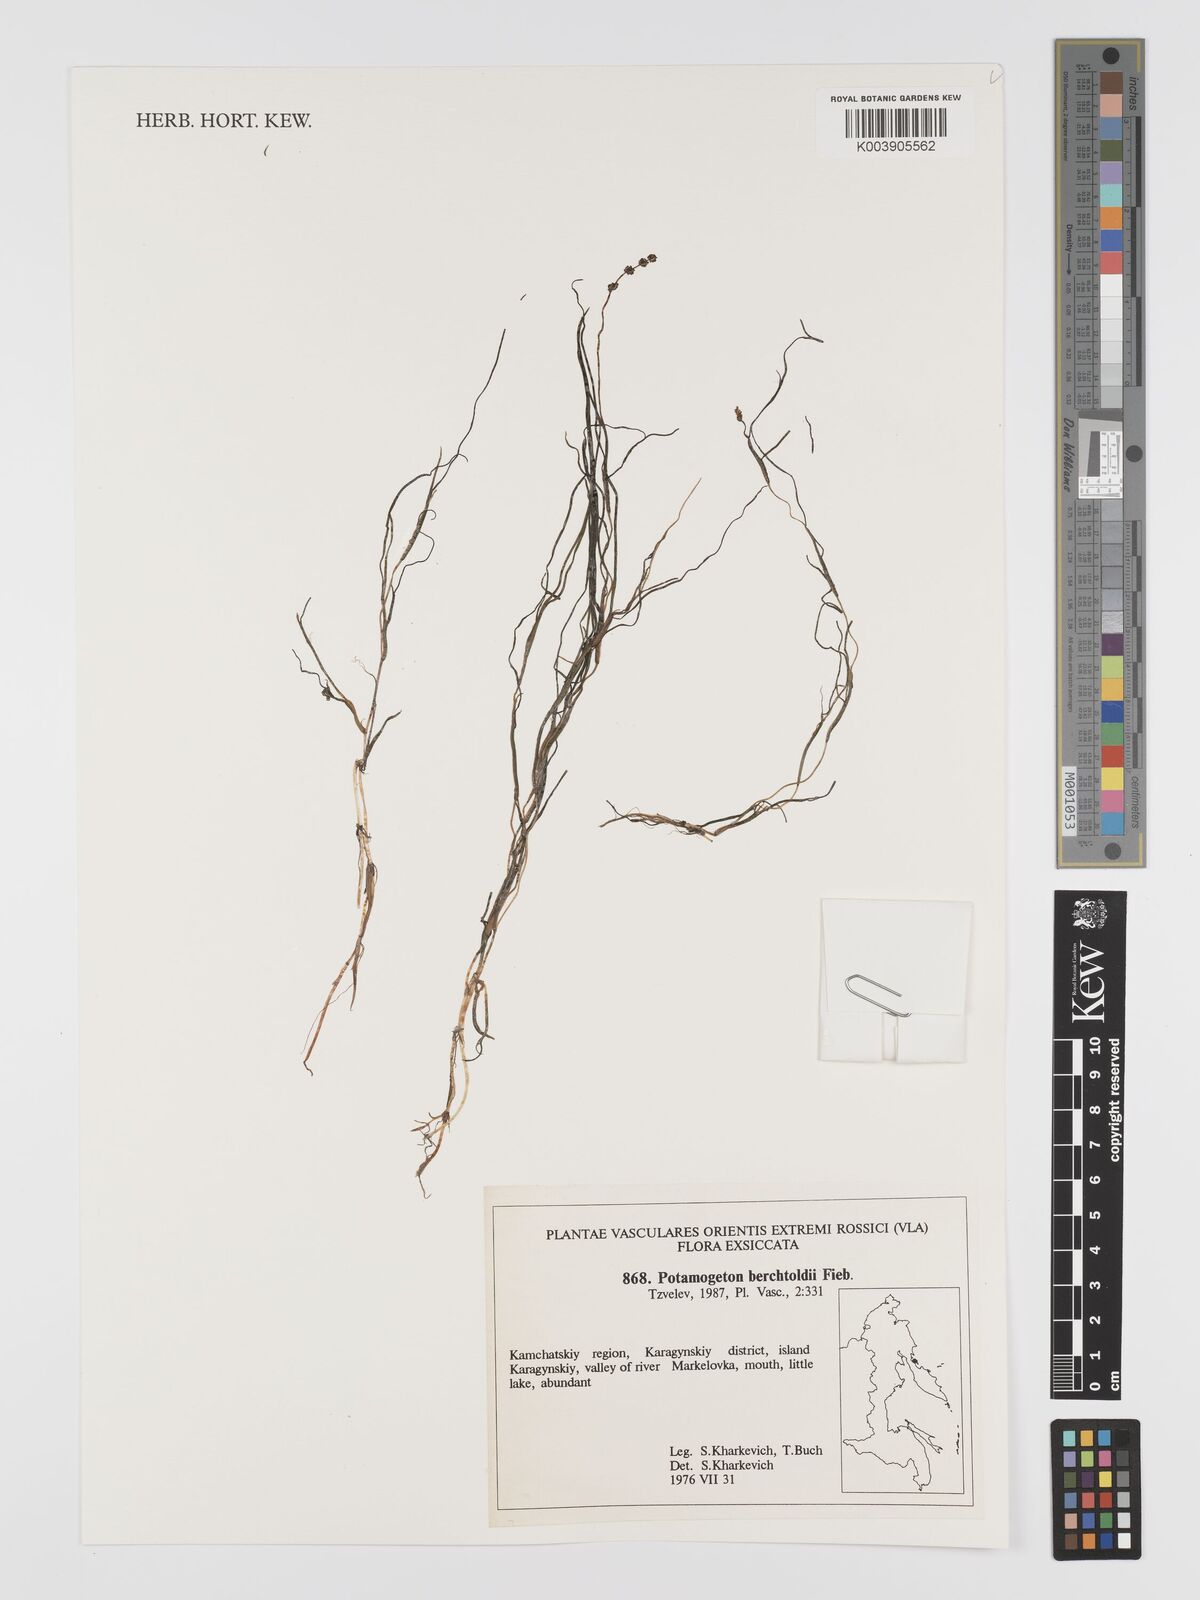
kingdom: Plantae
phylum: Tracheophyta
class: Liliopsida
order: Alismatales
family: Potamogetonaceae
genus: Potamogeton
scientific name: Potamogeton berchtoldii
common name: Small pondweed
